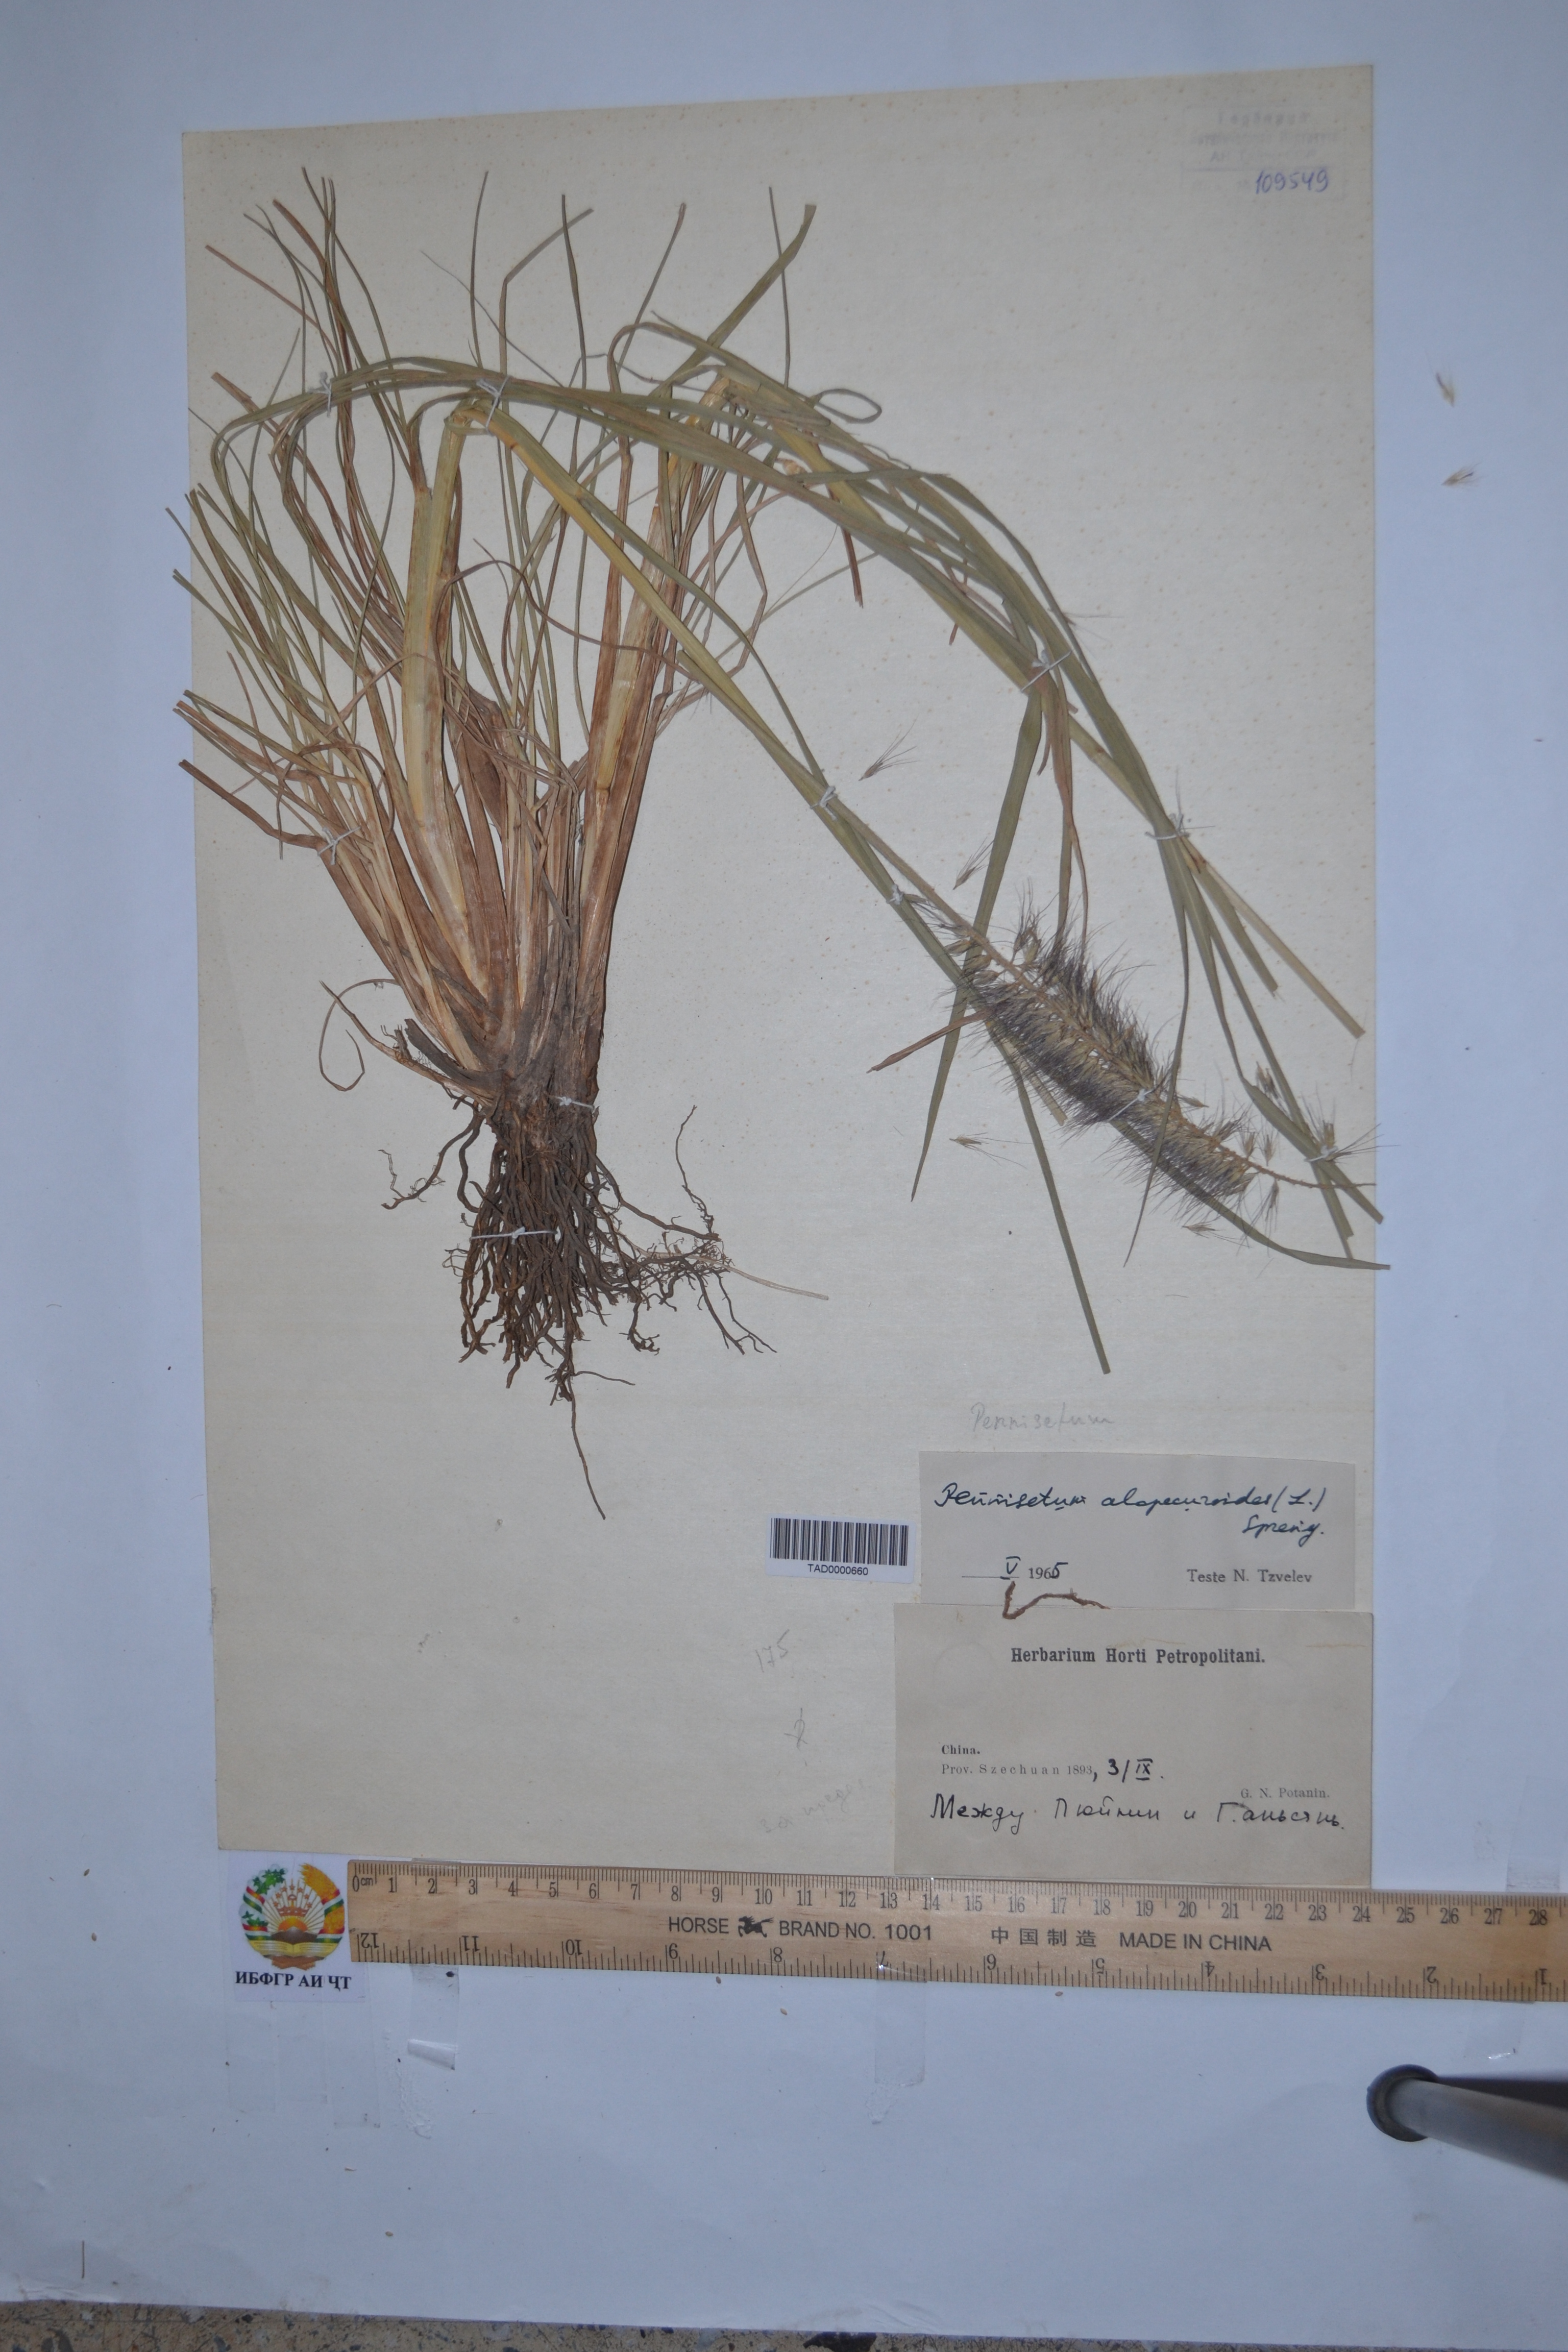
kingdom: Plantae
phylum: Tracheophyta
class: Liliopsida
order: Poales
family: Poaceae
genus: Cenchrus
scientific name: Cenchrus Pennisetum spec
